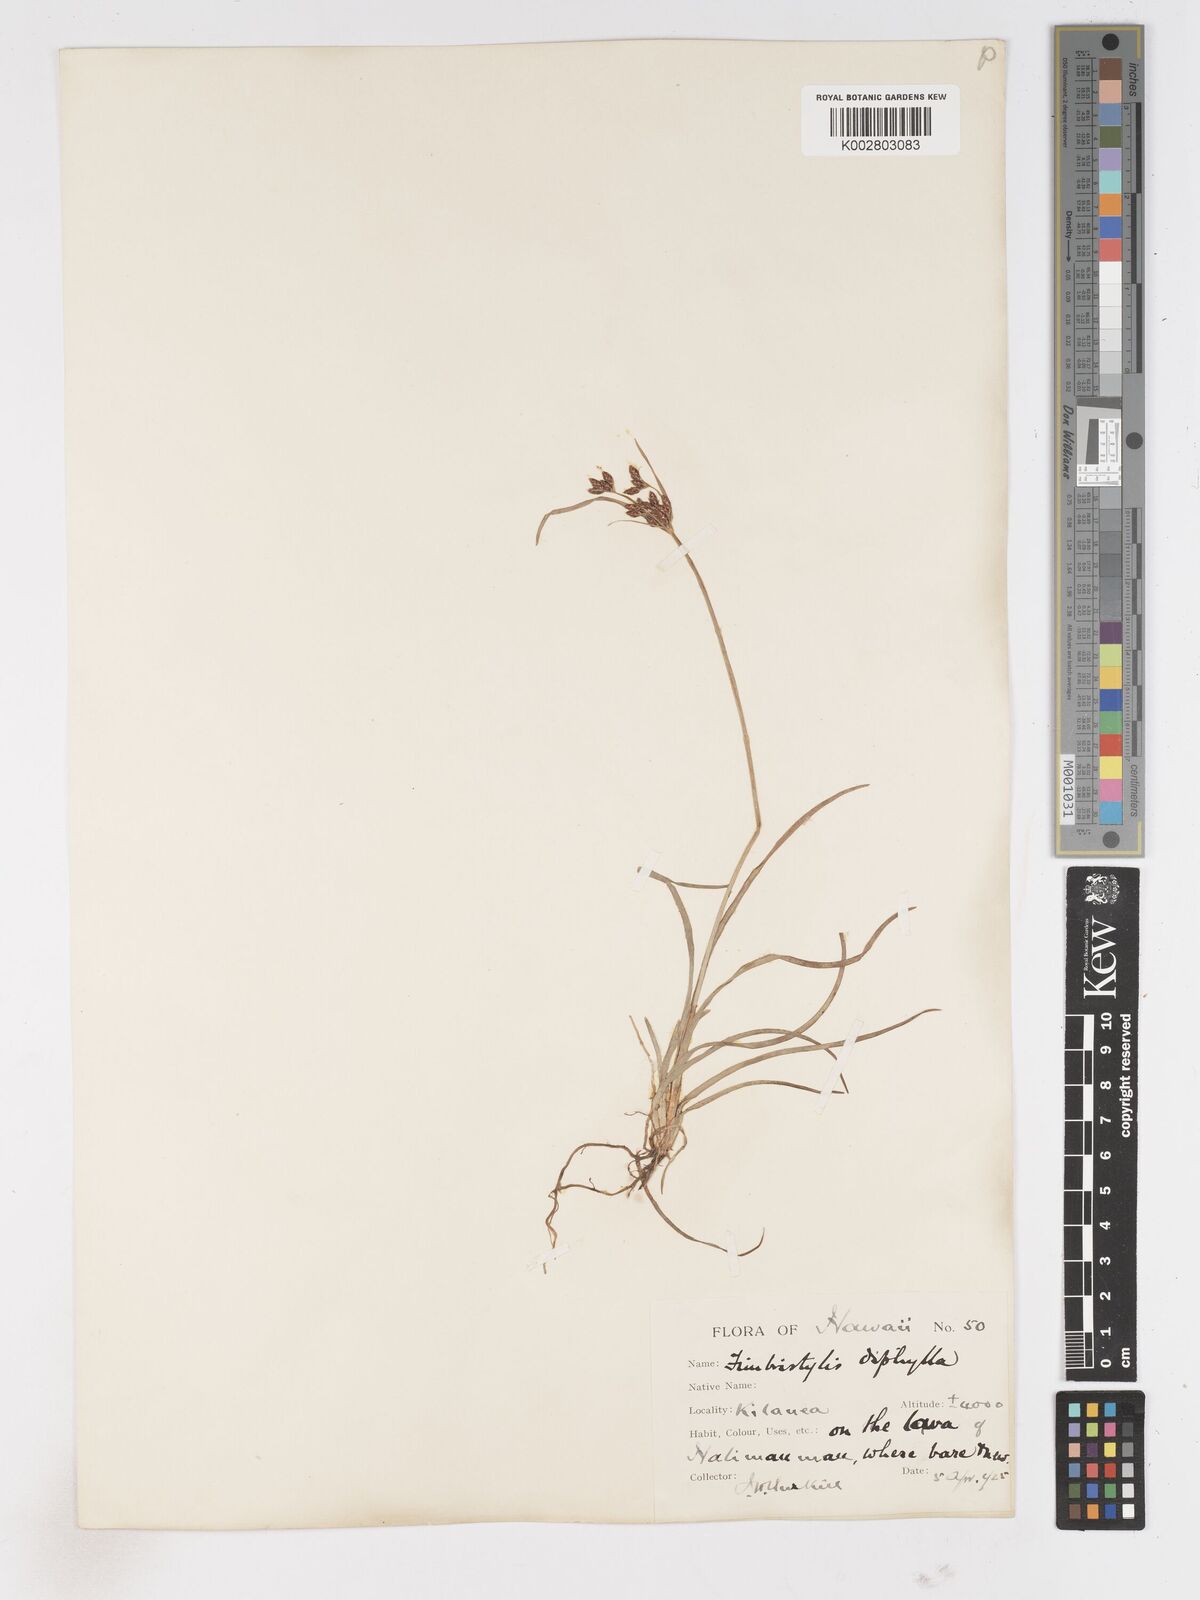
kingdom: Plantae
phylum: Tracheophyta
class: Liliopsida
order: Poales
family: Cyperaceae
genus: Fimbristylis
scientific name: Fimbristylis dichotoma
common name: Forked fimbry
